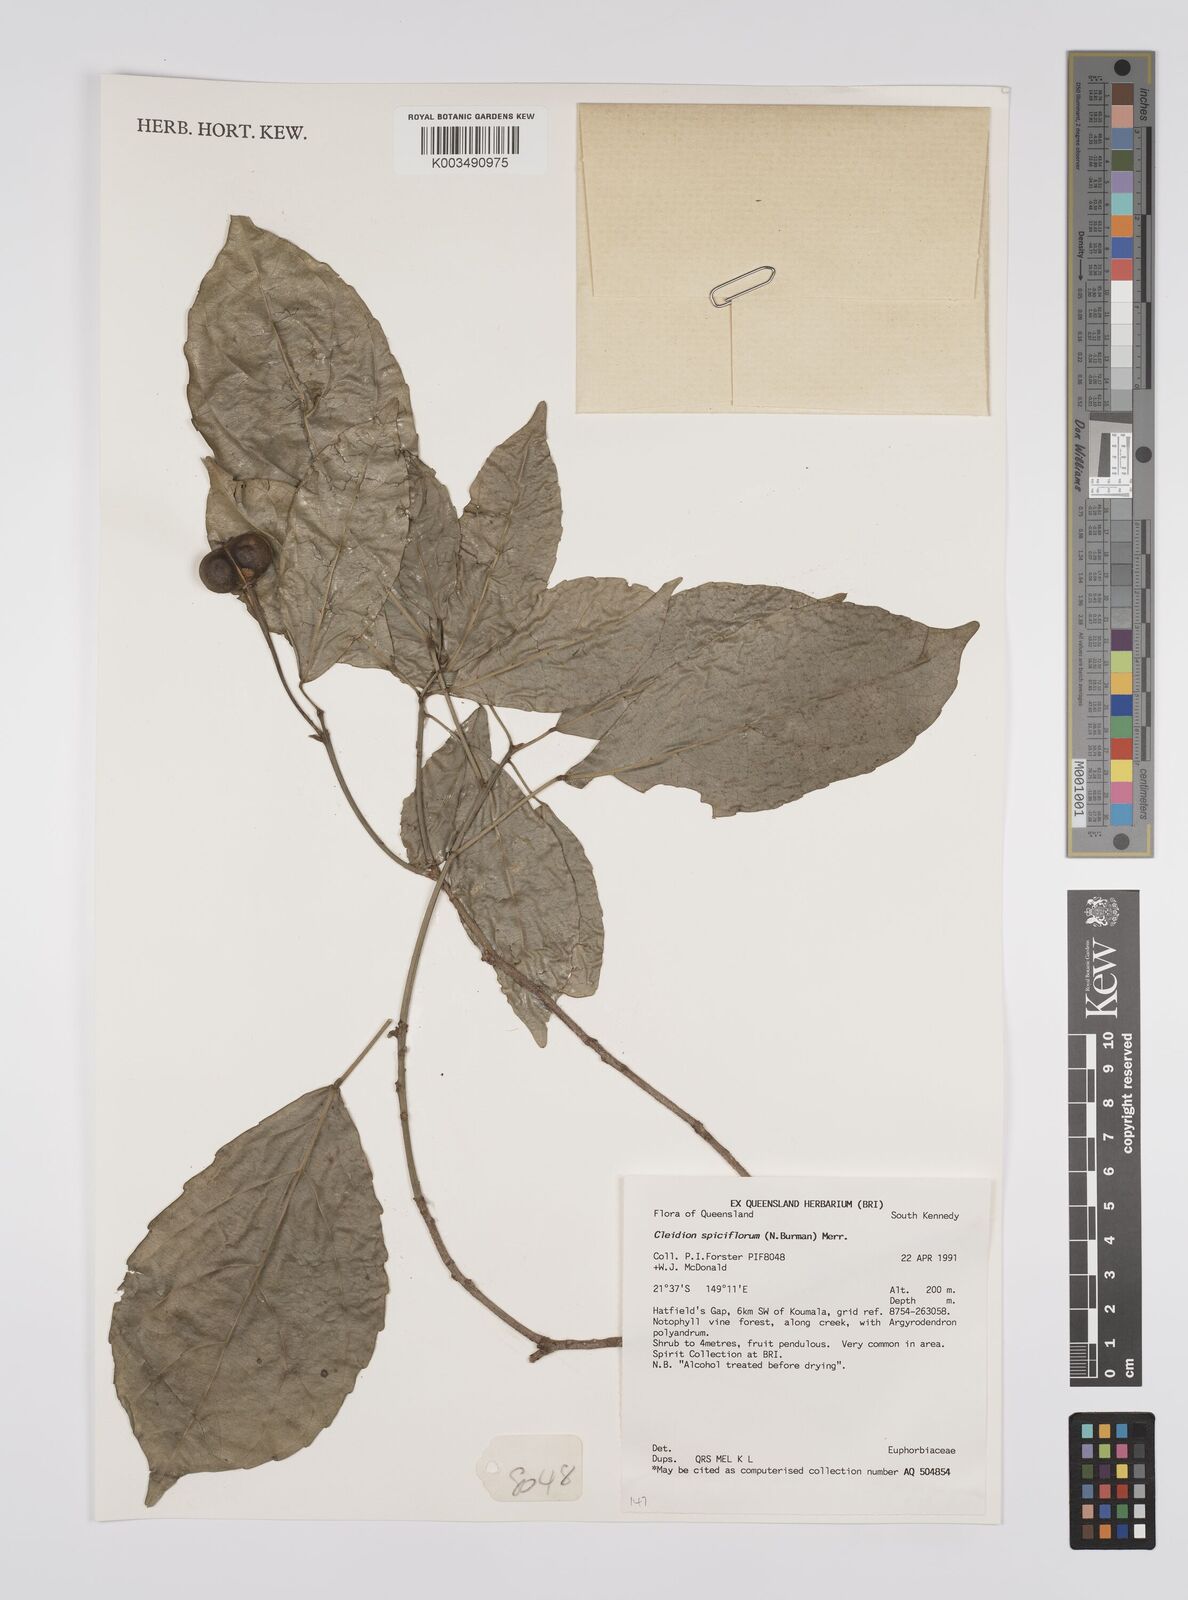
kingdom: Plantae
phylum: Tracheophyta
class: Magnoliopsida
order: Malpighiales
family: Euphorbiaceae
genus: Cleidion
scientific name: Cleidion javanicum
